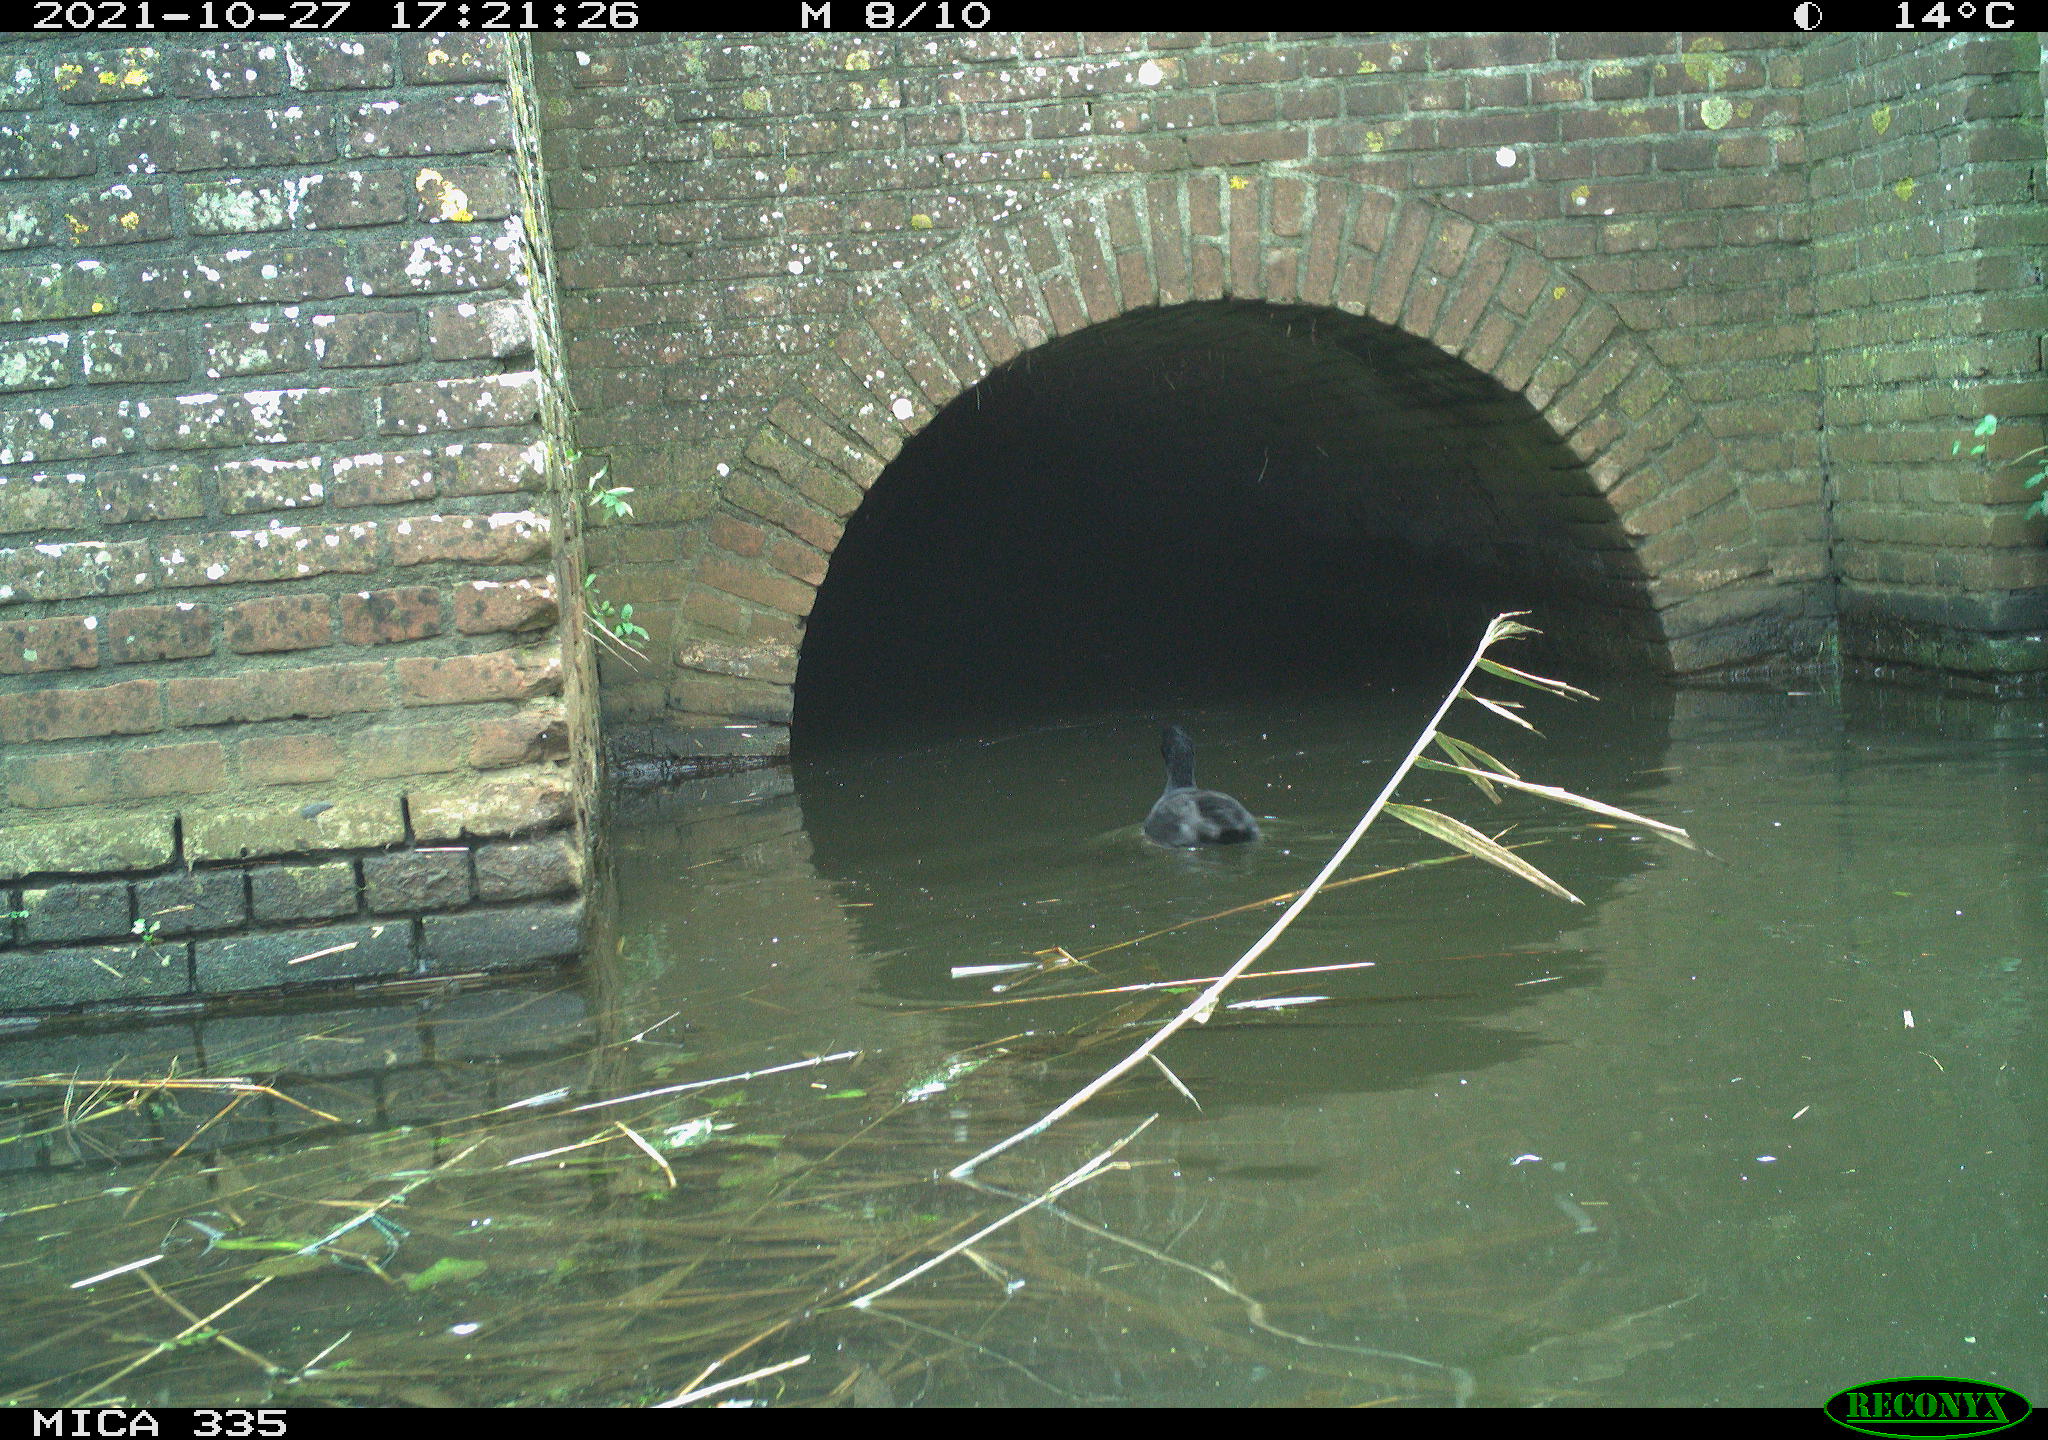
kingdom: Animalia
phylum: Chordata
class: Aves
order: Gruiformes
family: Rallidae
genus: Fulica
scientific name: Fulica atra
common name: Eurasian coot
